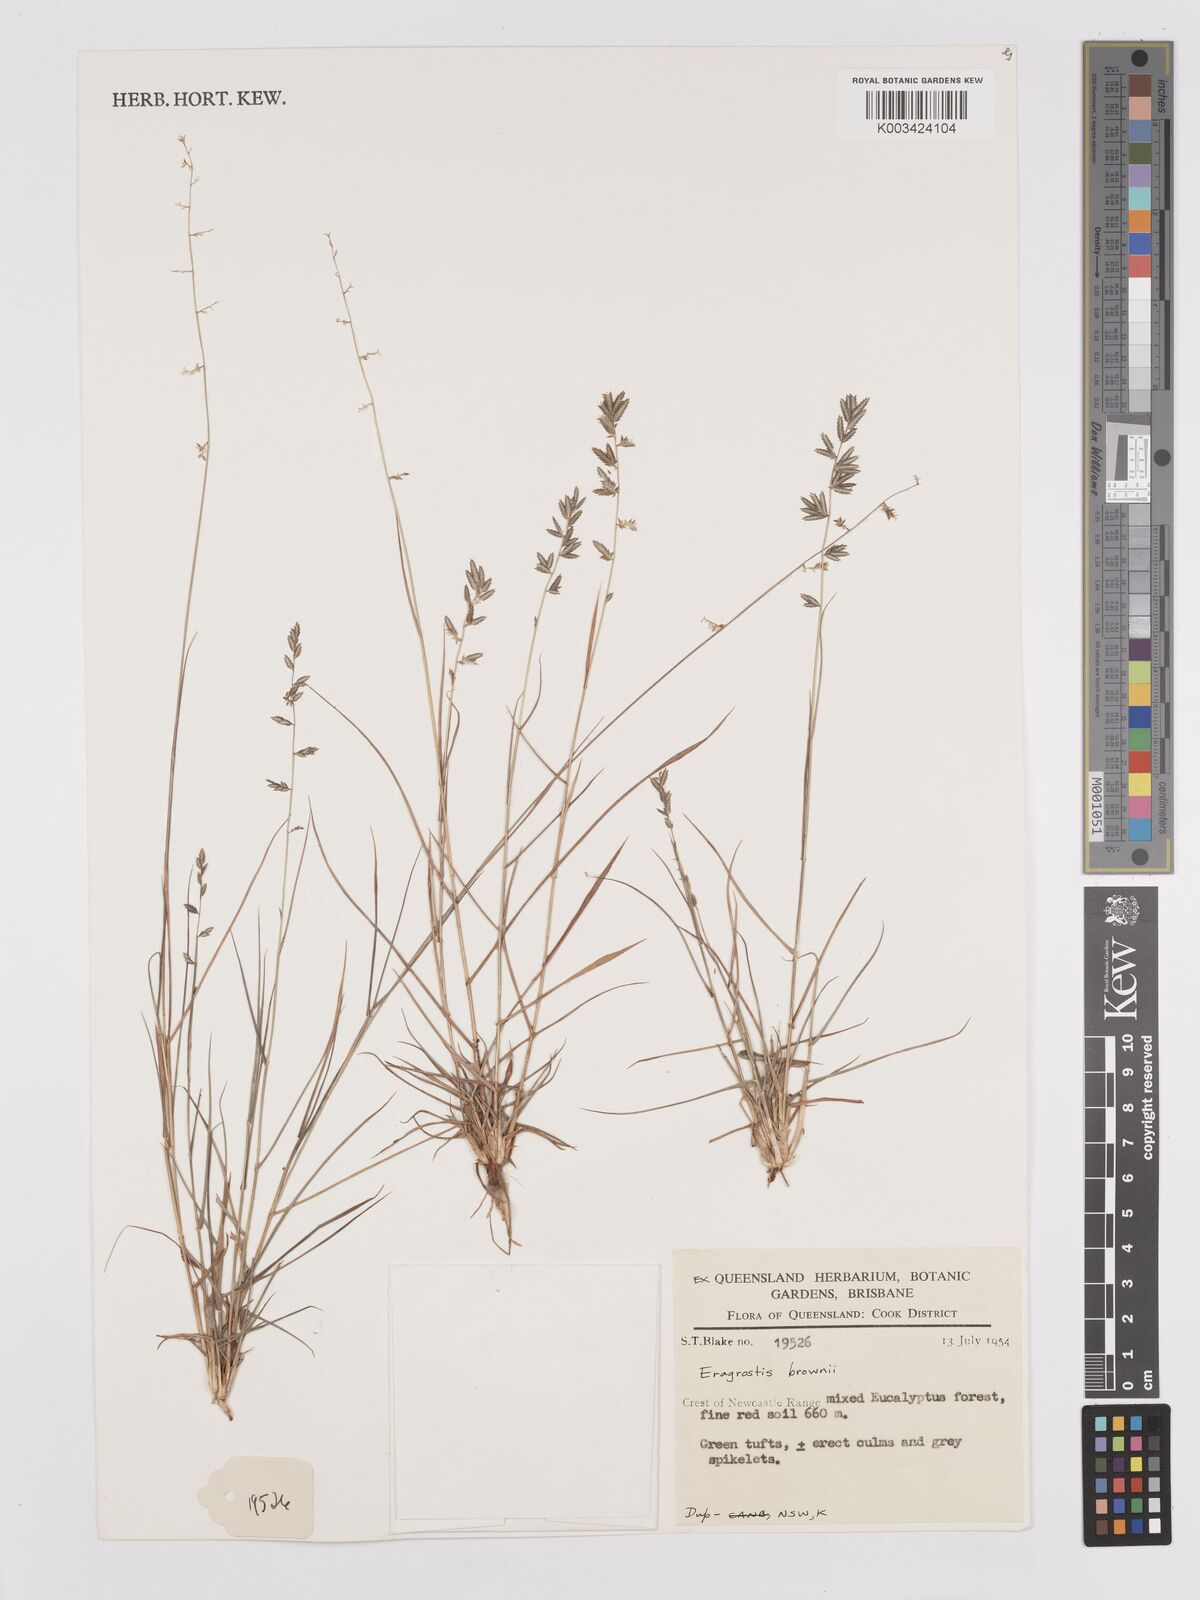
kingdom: Plantae
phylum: Tracheophyta
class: Liliopsida
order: Poales
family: Poaceae
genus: Eragrostis
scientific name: Eragrostis brownii
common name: Lovegrass
